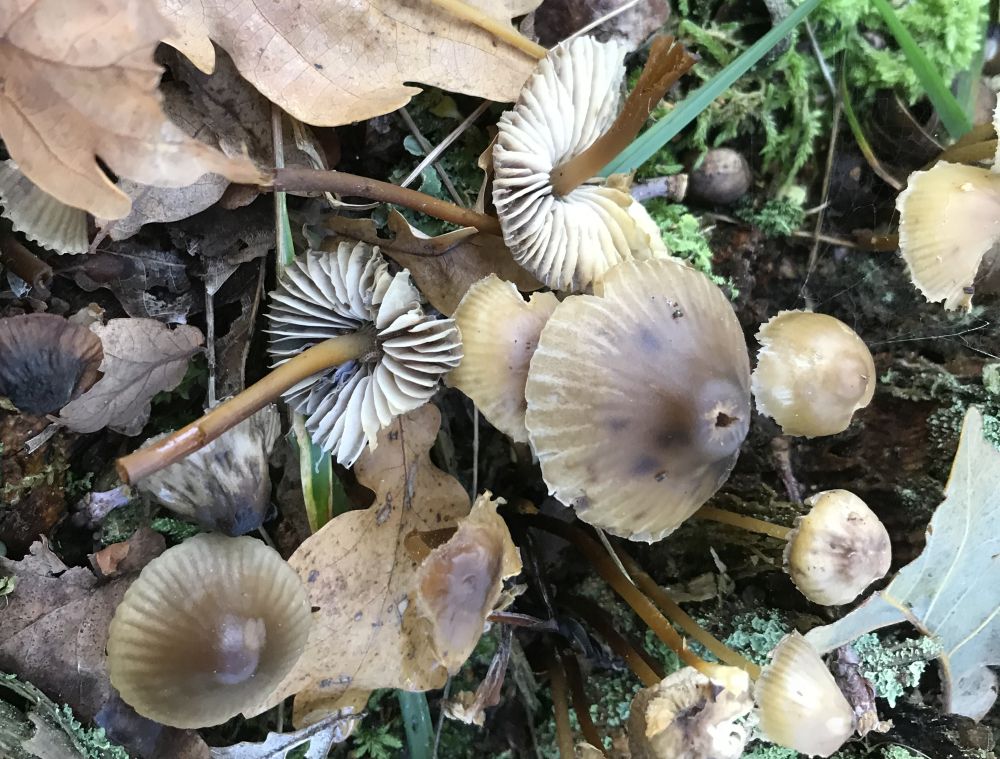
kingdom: Fungi
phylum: Basidiomycota
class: Agaricomycetes
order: Agaricales
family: Mycenaceae
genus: Mycena
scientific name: Mycena inclinata
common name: nikkende huesvamp
